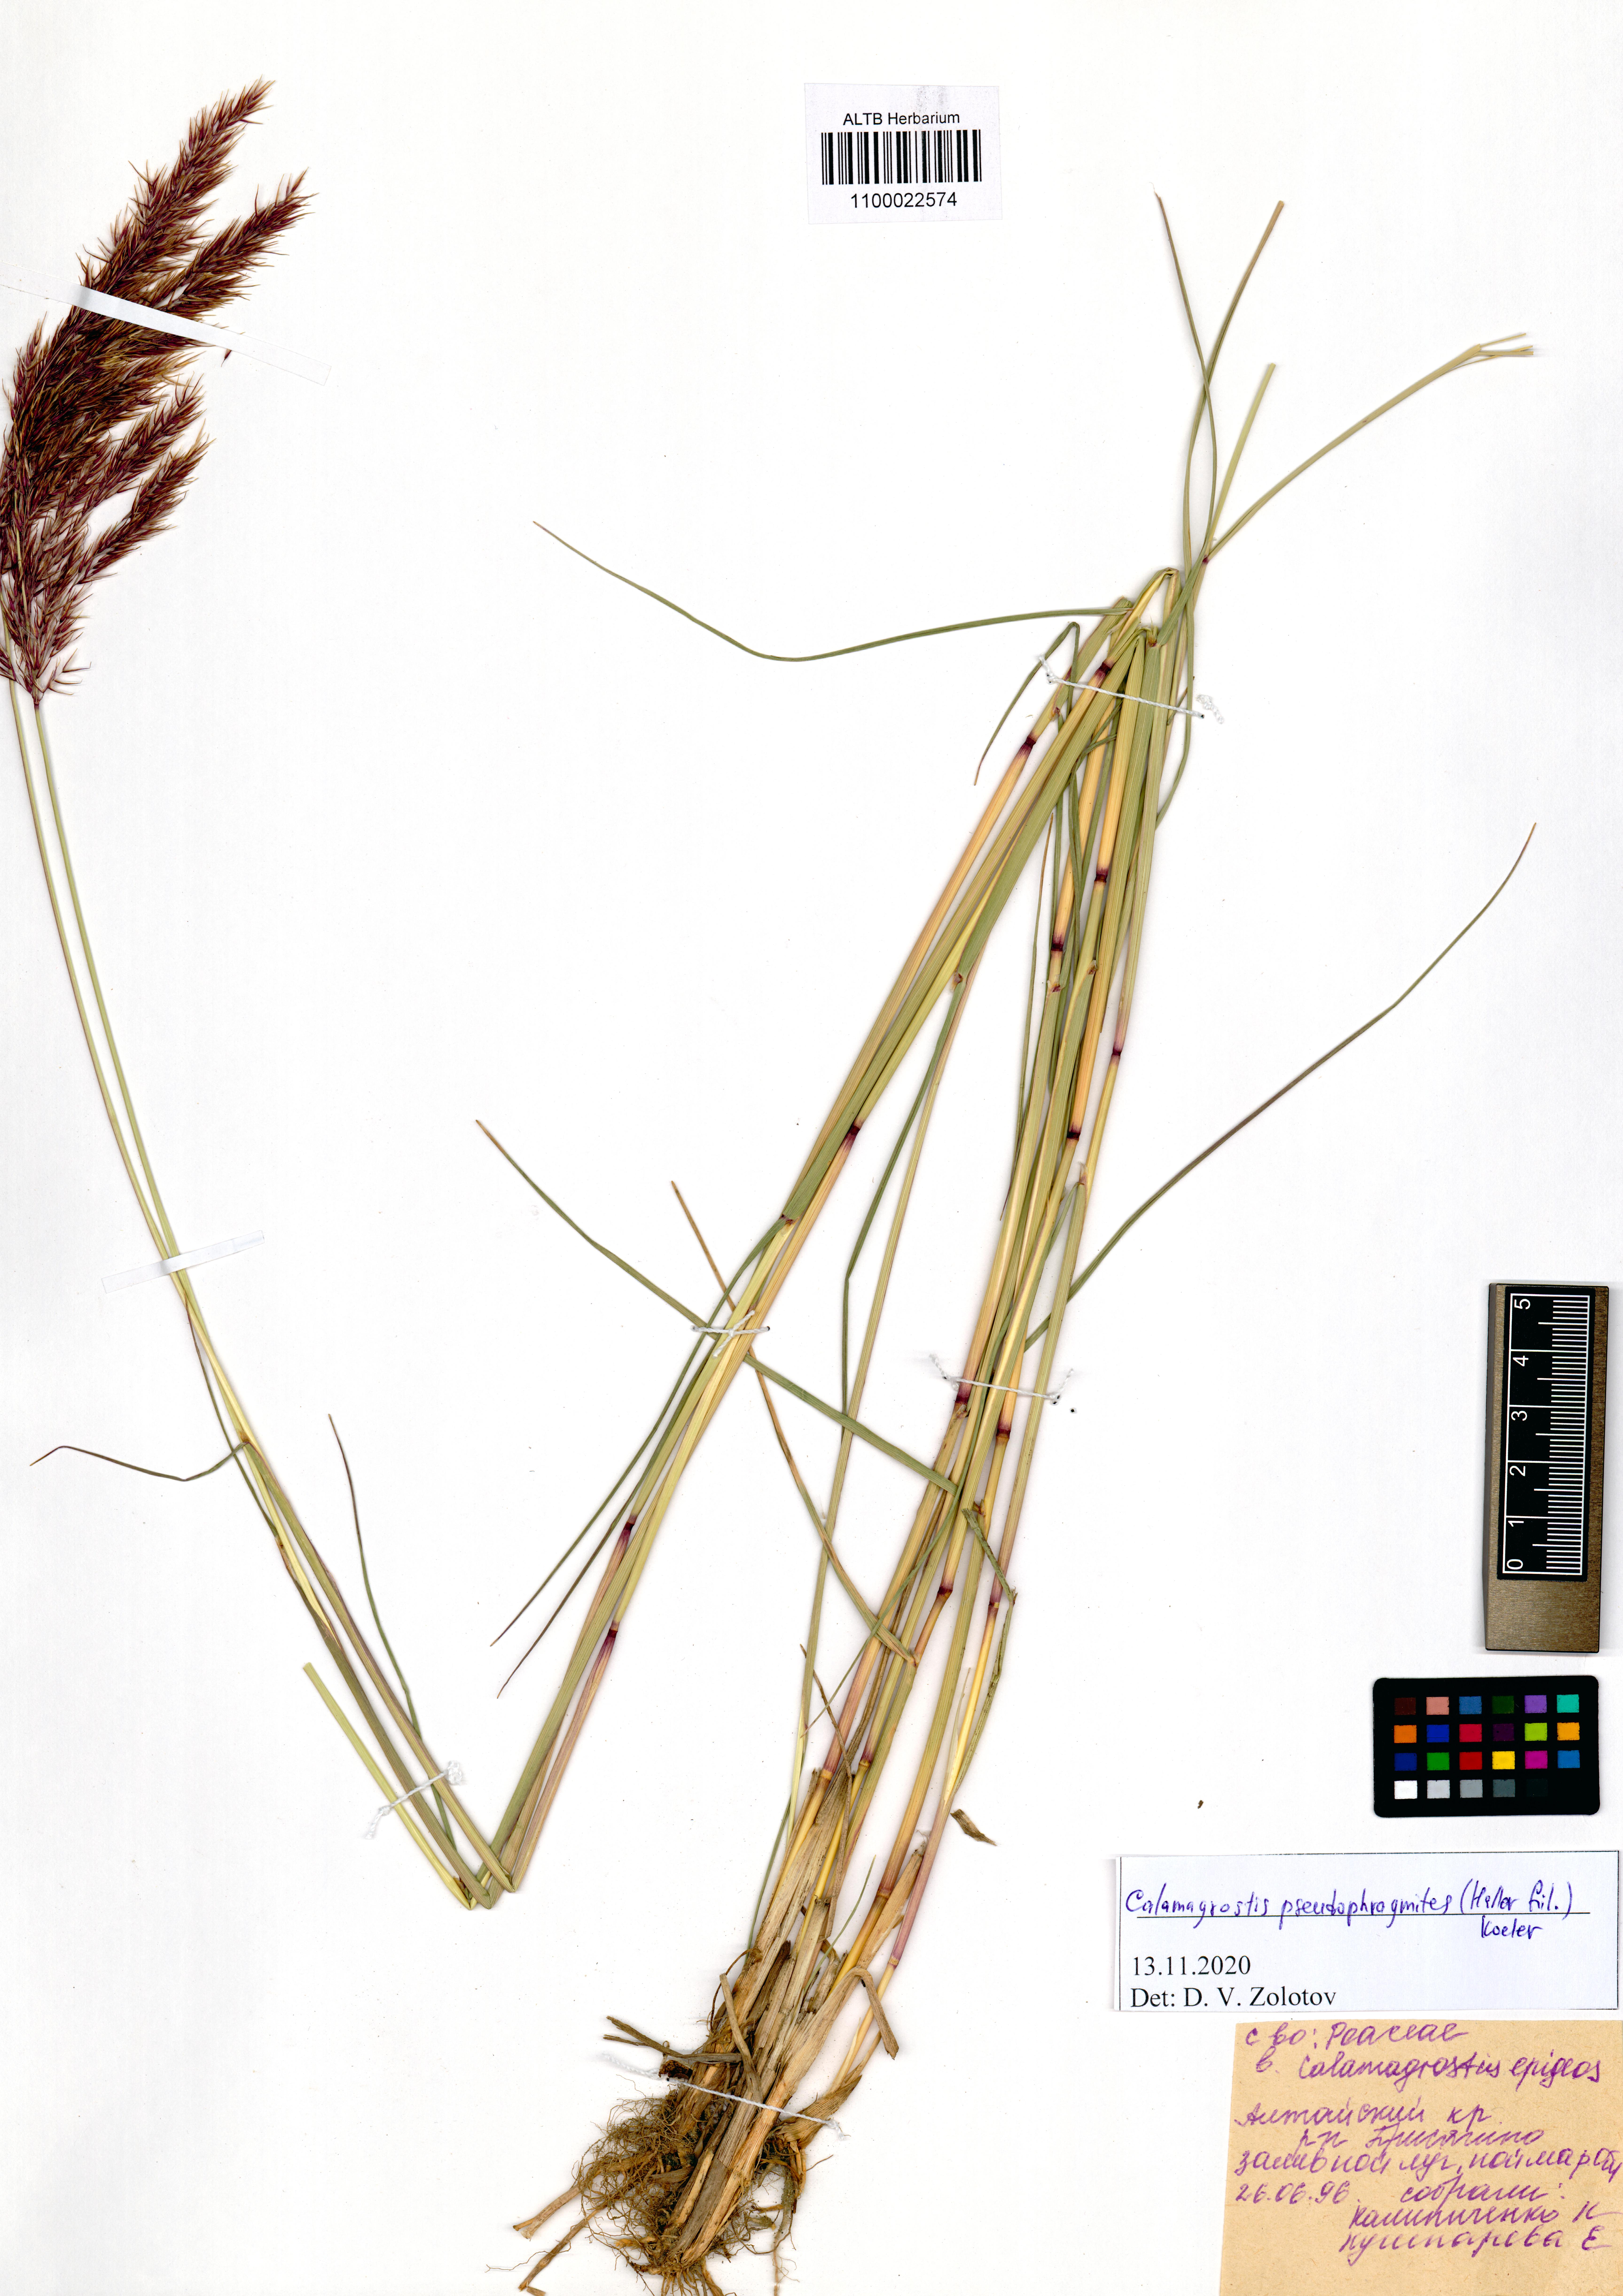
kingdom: Plantae
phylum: Tracheophyta
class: Liliopsida
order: Poales
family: Poaceae
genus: Calamagrostis
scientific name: Calamagrostis pseudophragmites
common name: Coastal small-reed
